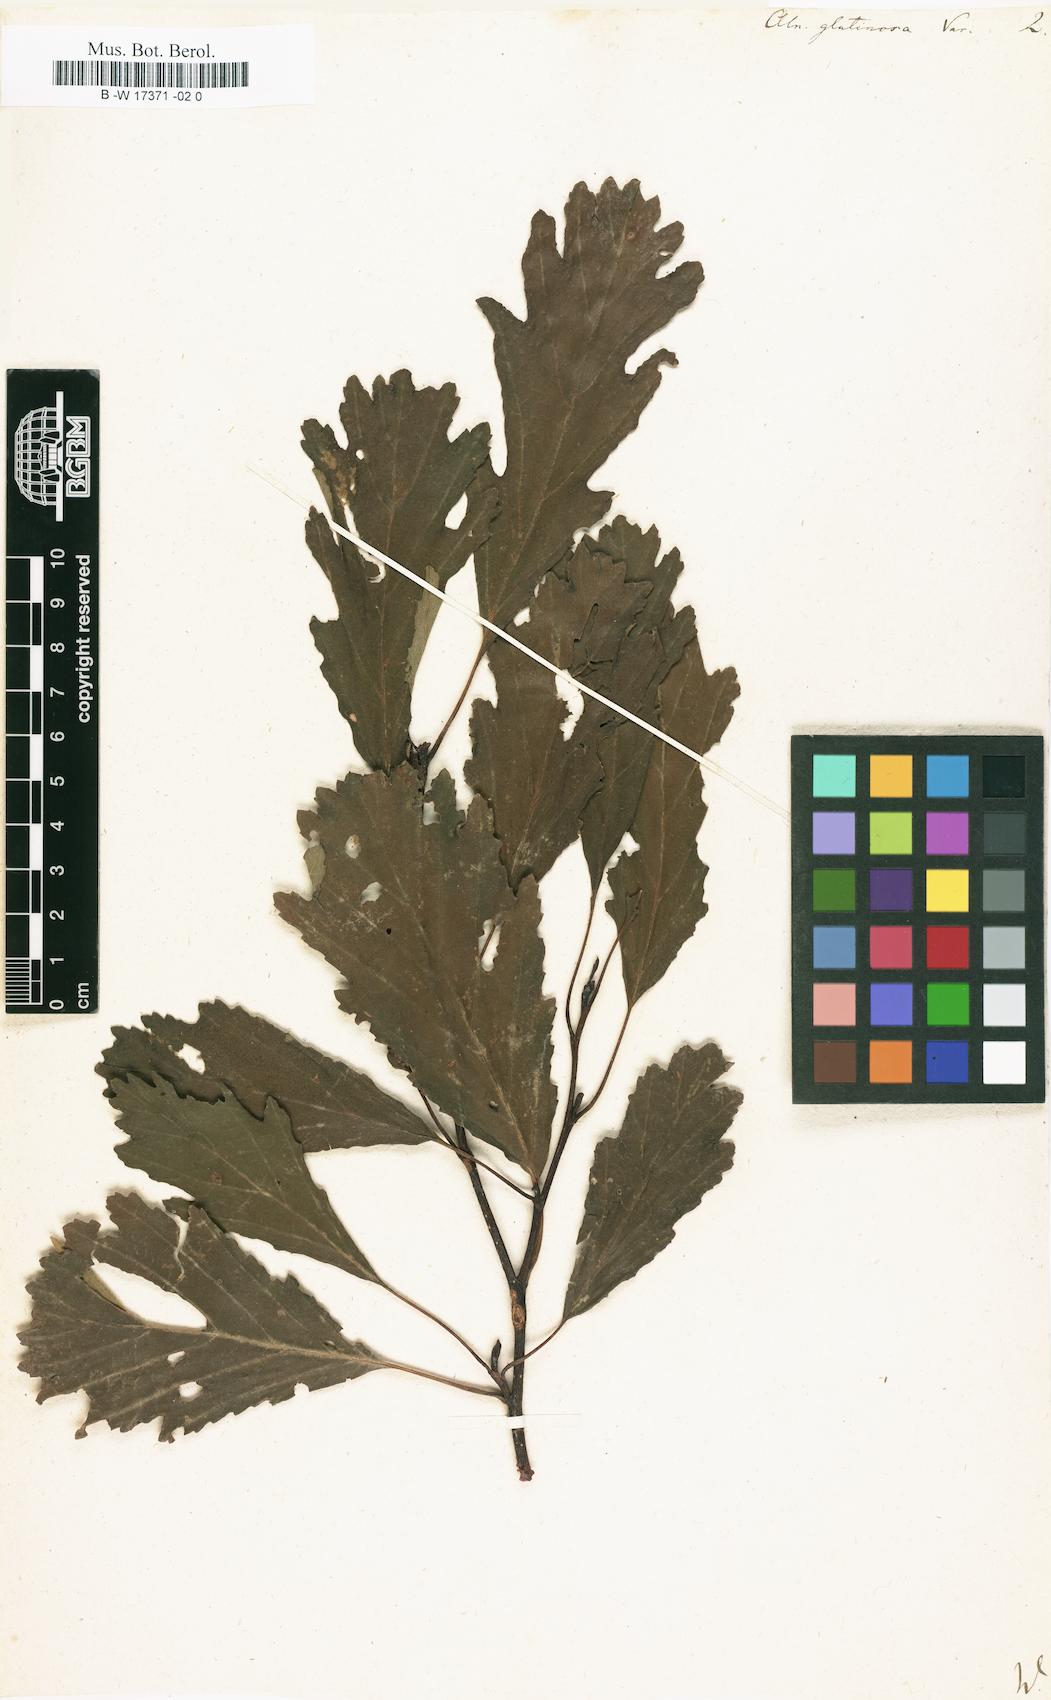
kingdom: Plantae
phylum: Tracheophyta
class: Magnoliopsida
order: Fagales
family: Betulaceae
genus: Alnus
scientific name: Alnus incana
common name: Grey alder
